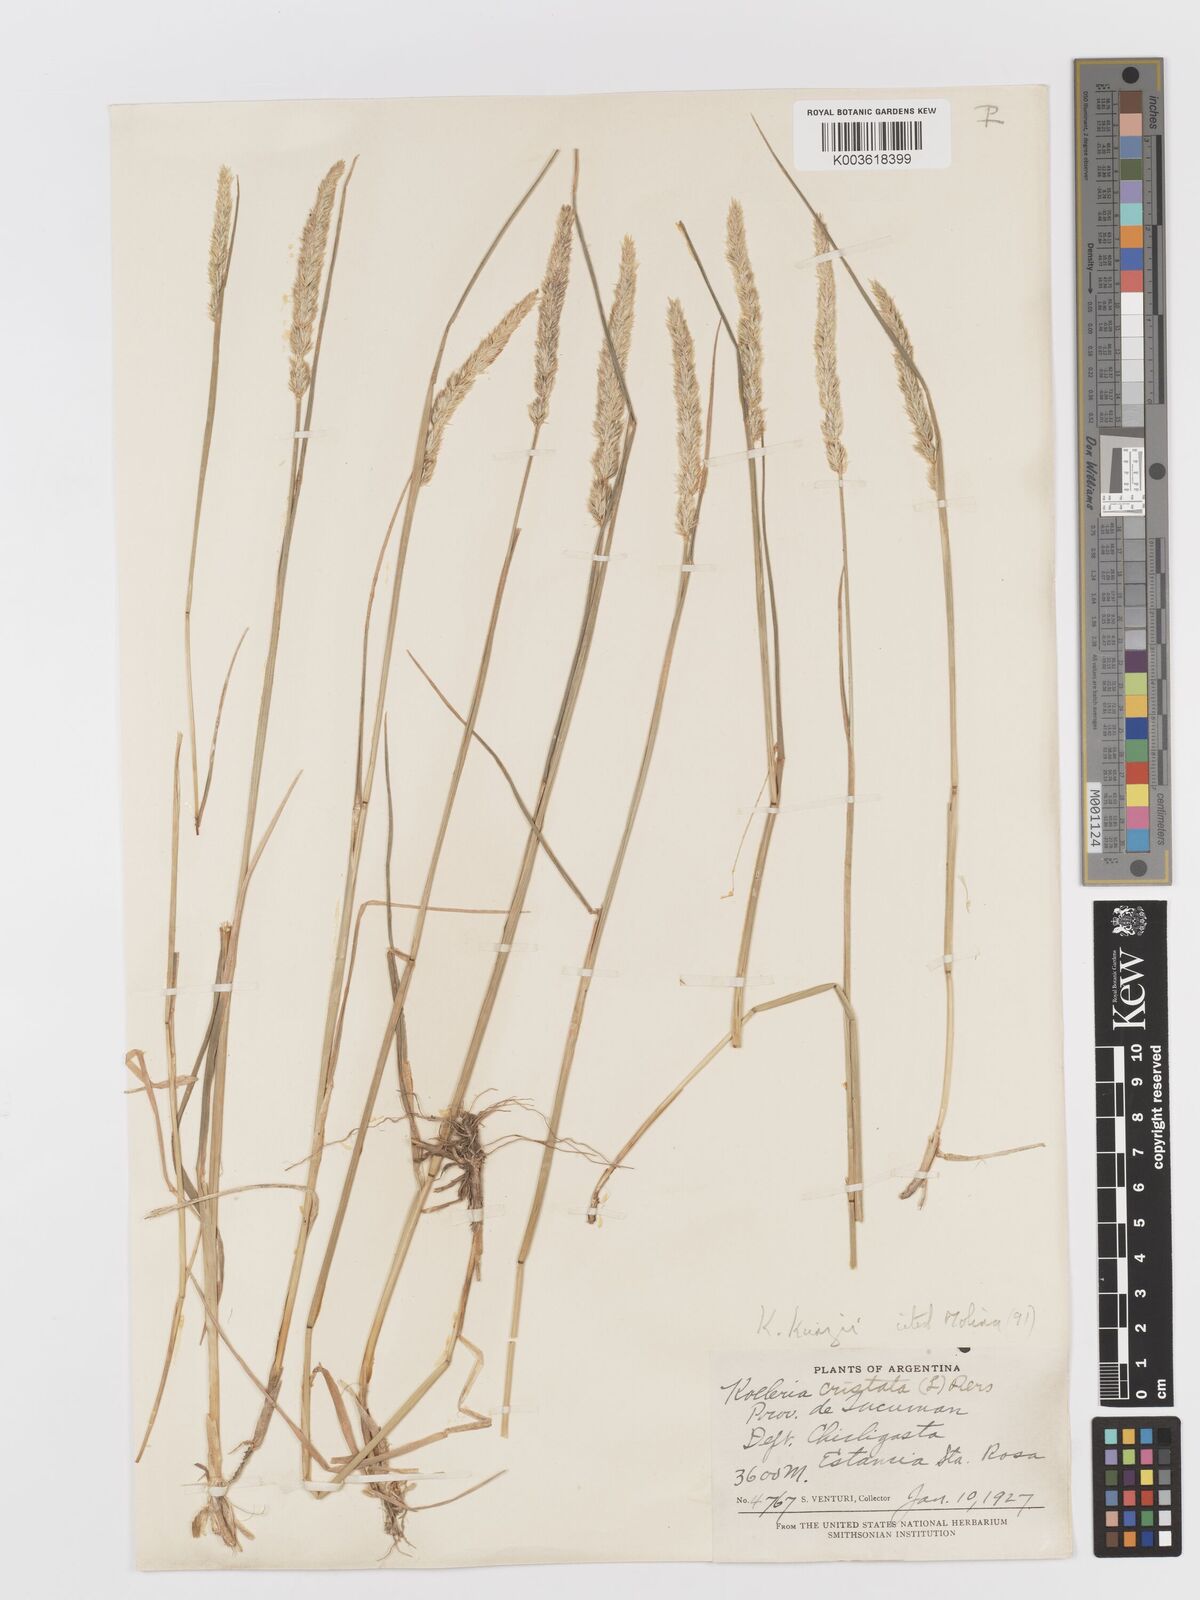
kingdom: Plantae
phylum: Tracheophyta
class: Liliopsida
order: Poales
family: Poaceae
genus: Koeleria
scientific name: Koeleria kurtzii
